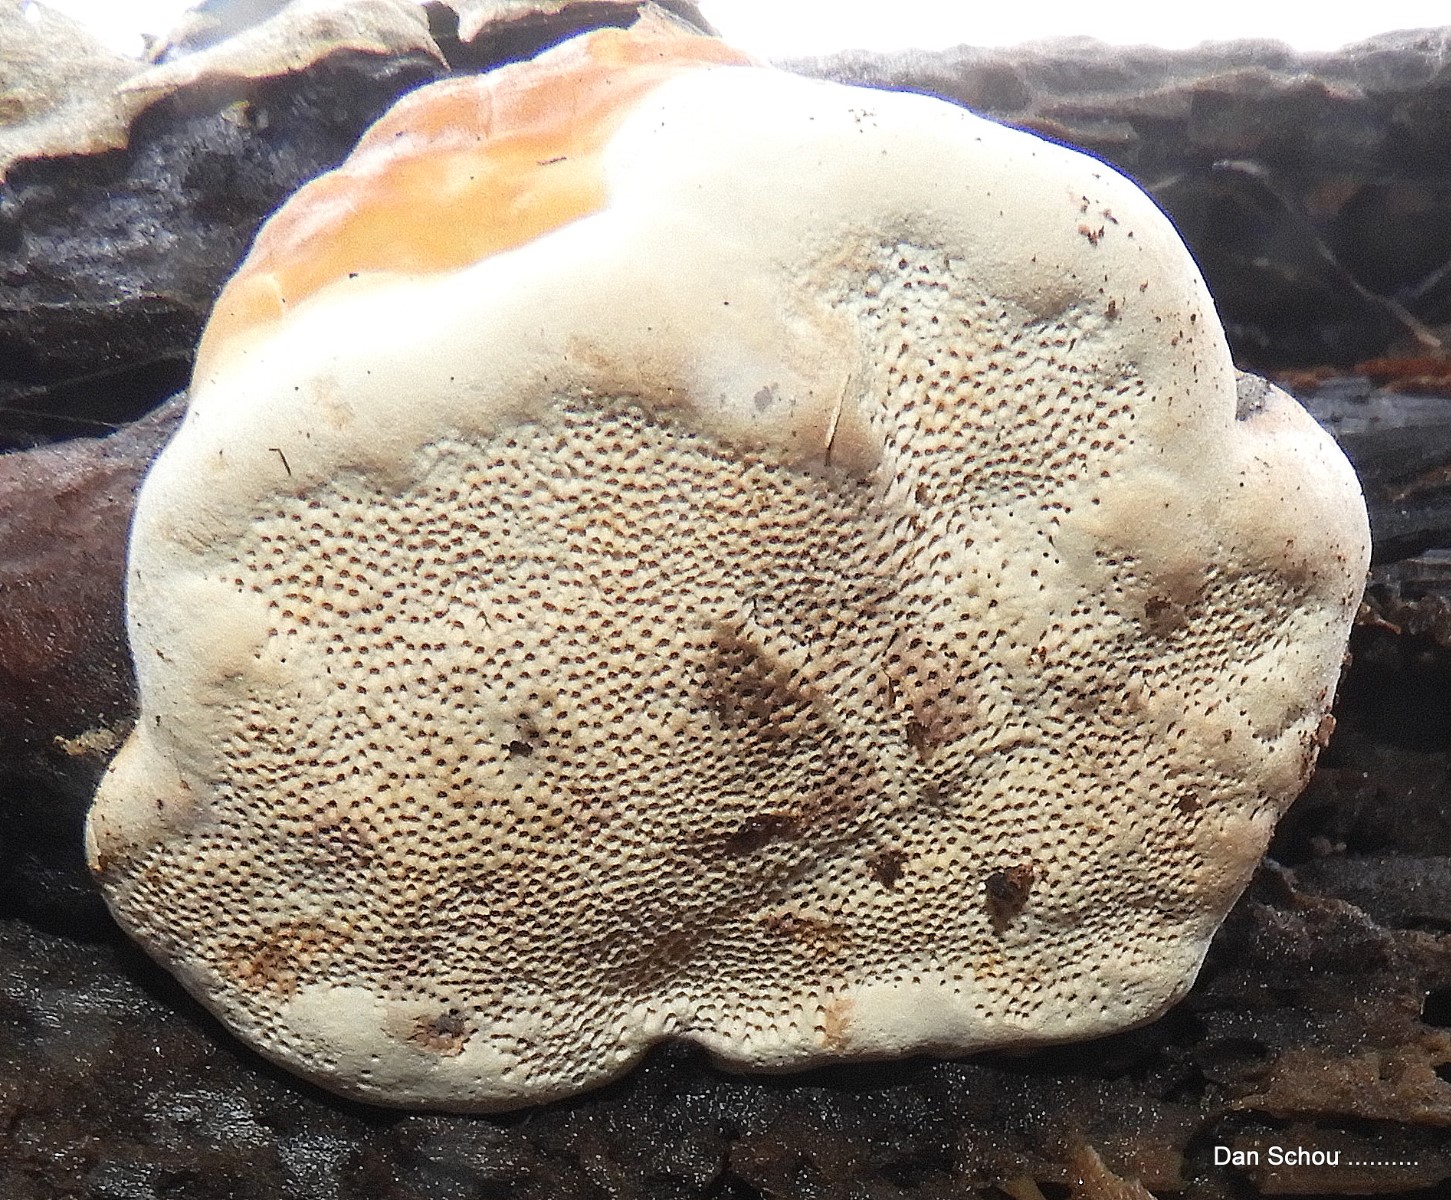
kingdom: Fungi
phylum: Basidiomycota
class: Agaricomycetes
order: Polyporales
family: Fomitopsidaceae
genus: Fomitopsis
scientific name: Fomitopsis pinicola
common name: randbæltet hovporesvamp
